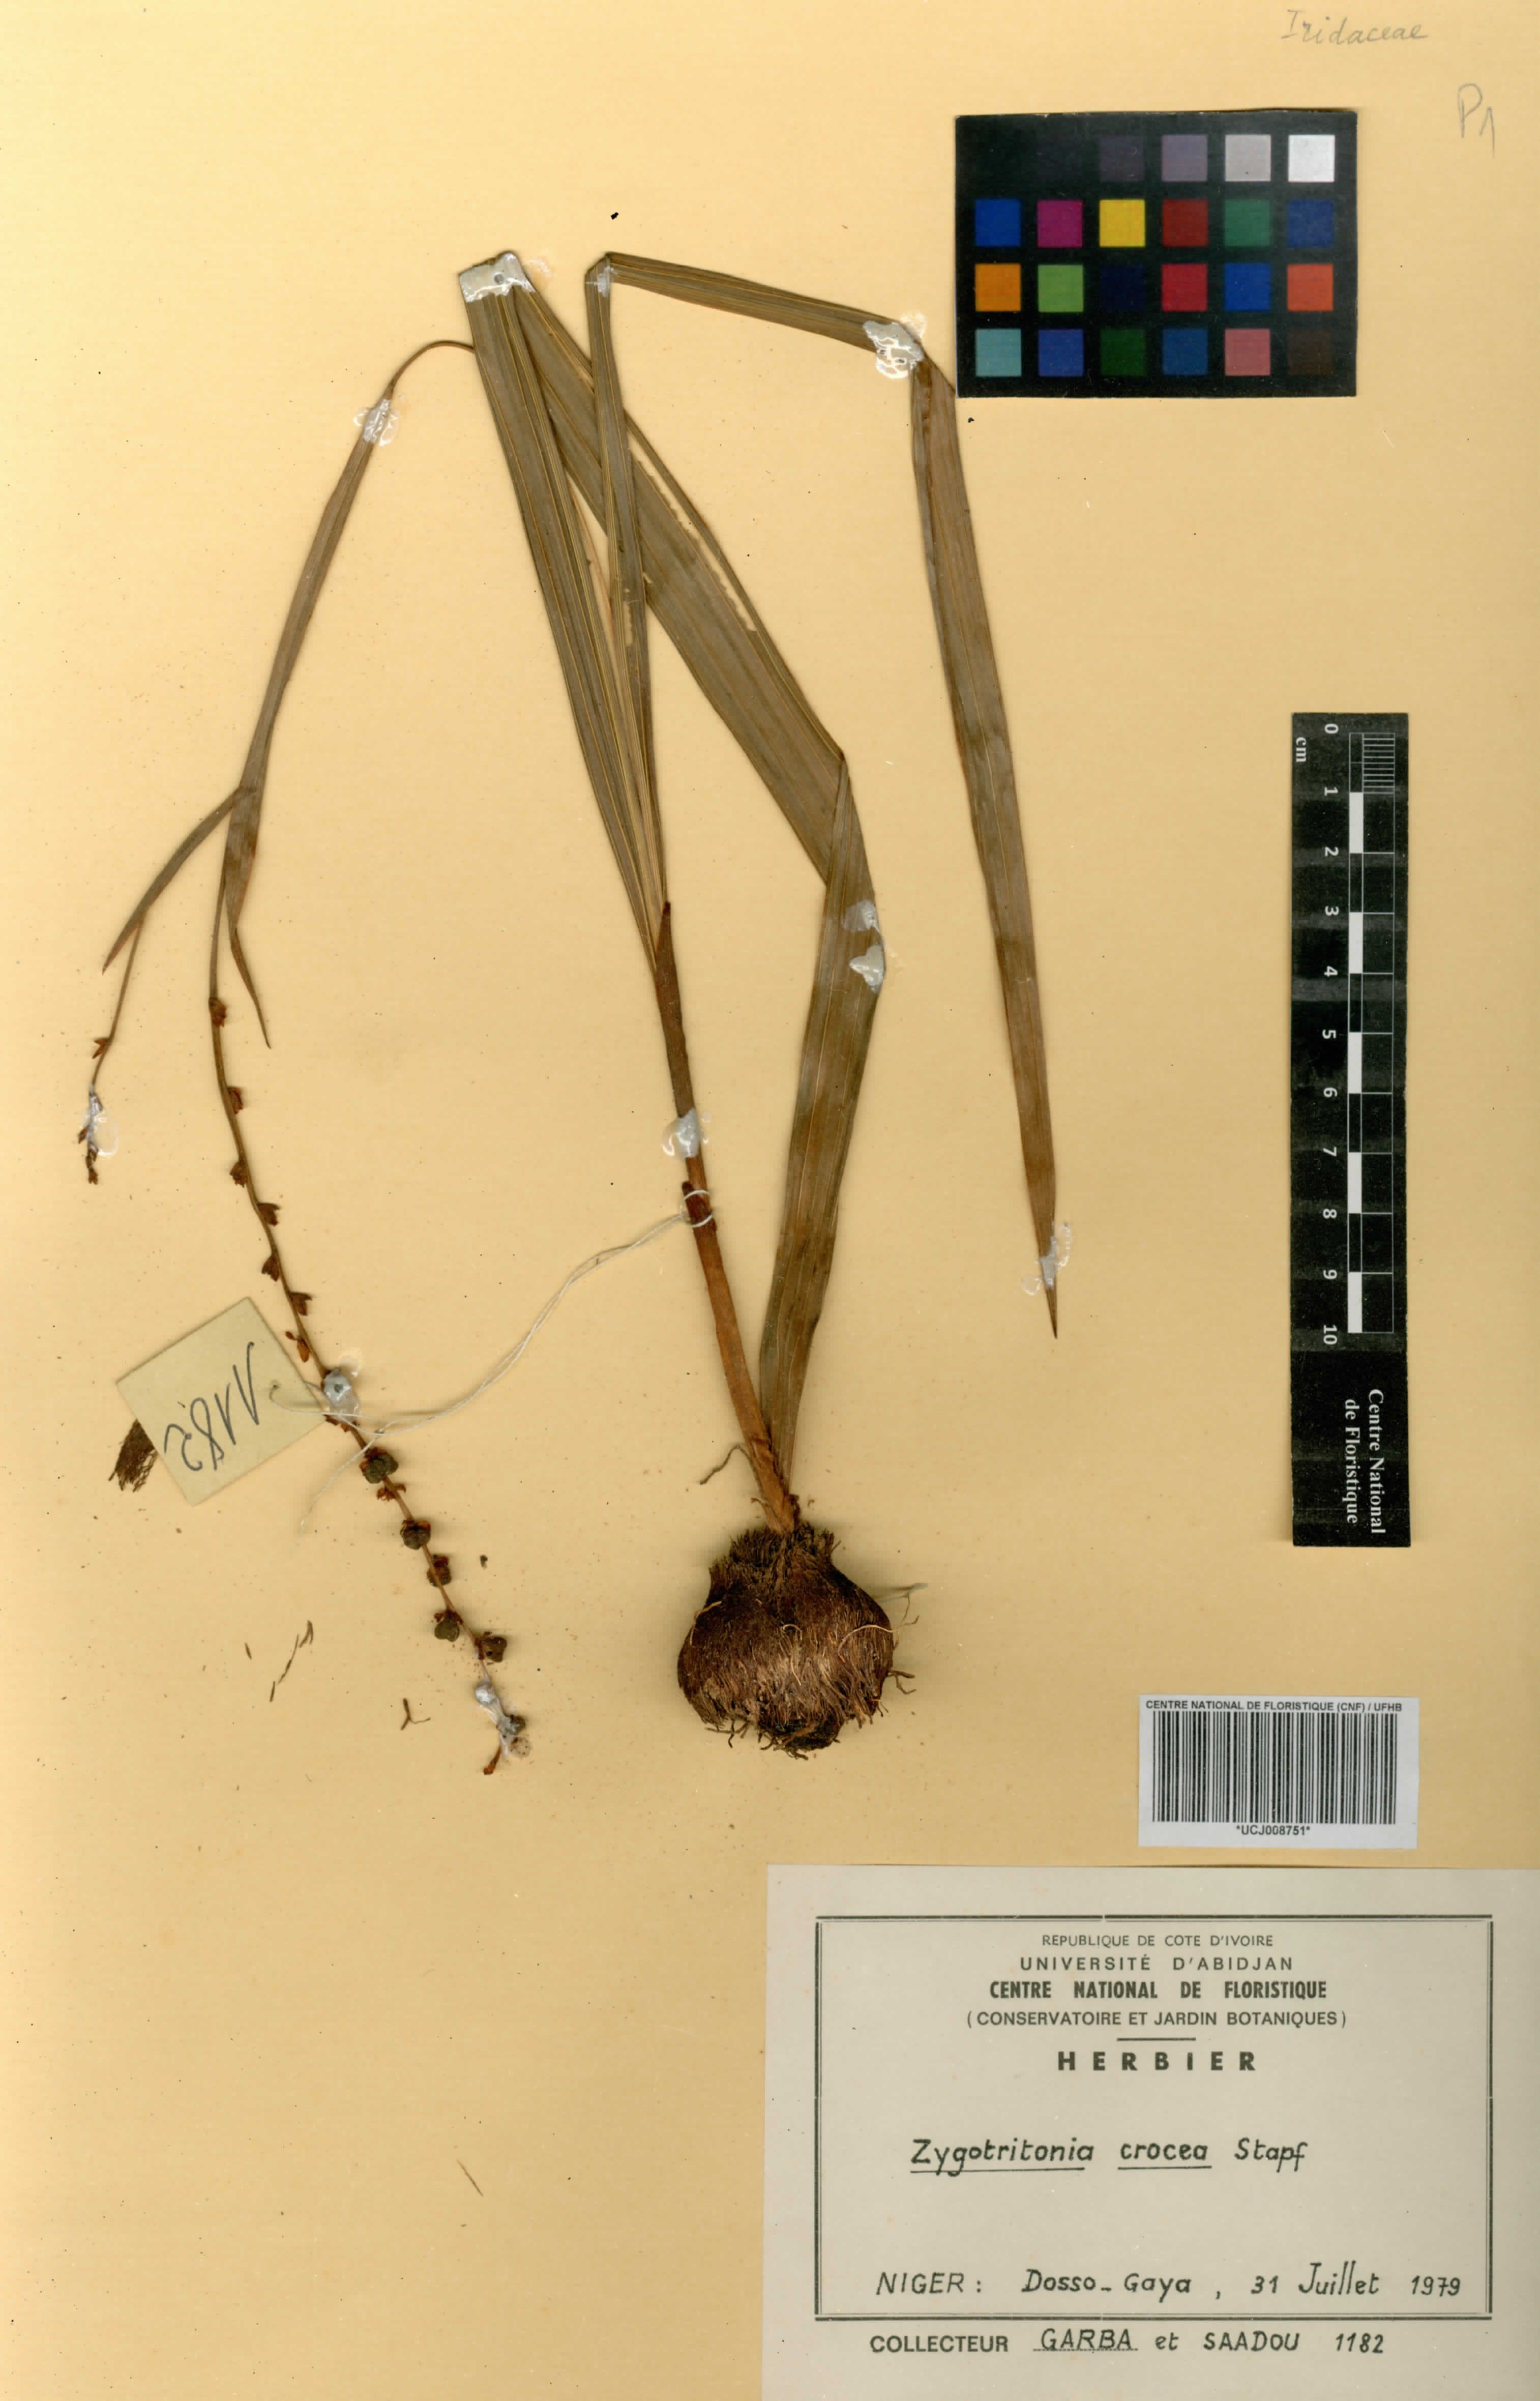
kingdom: Plantae
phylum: Tracheophyta
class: Liliopsida
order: Asparagales
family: Iridaceae
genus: Zygotritonia
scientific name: Zygotritonia bongensis
